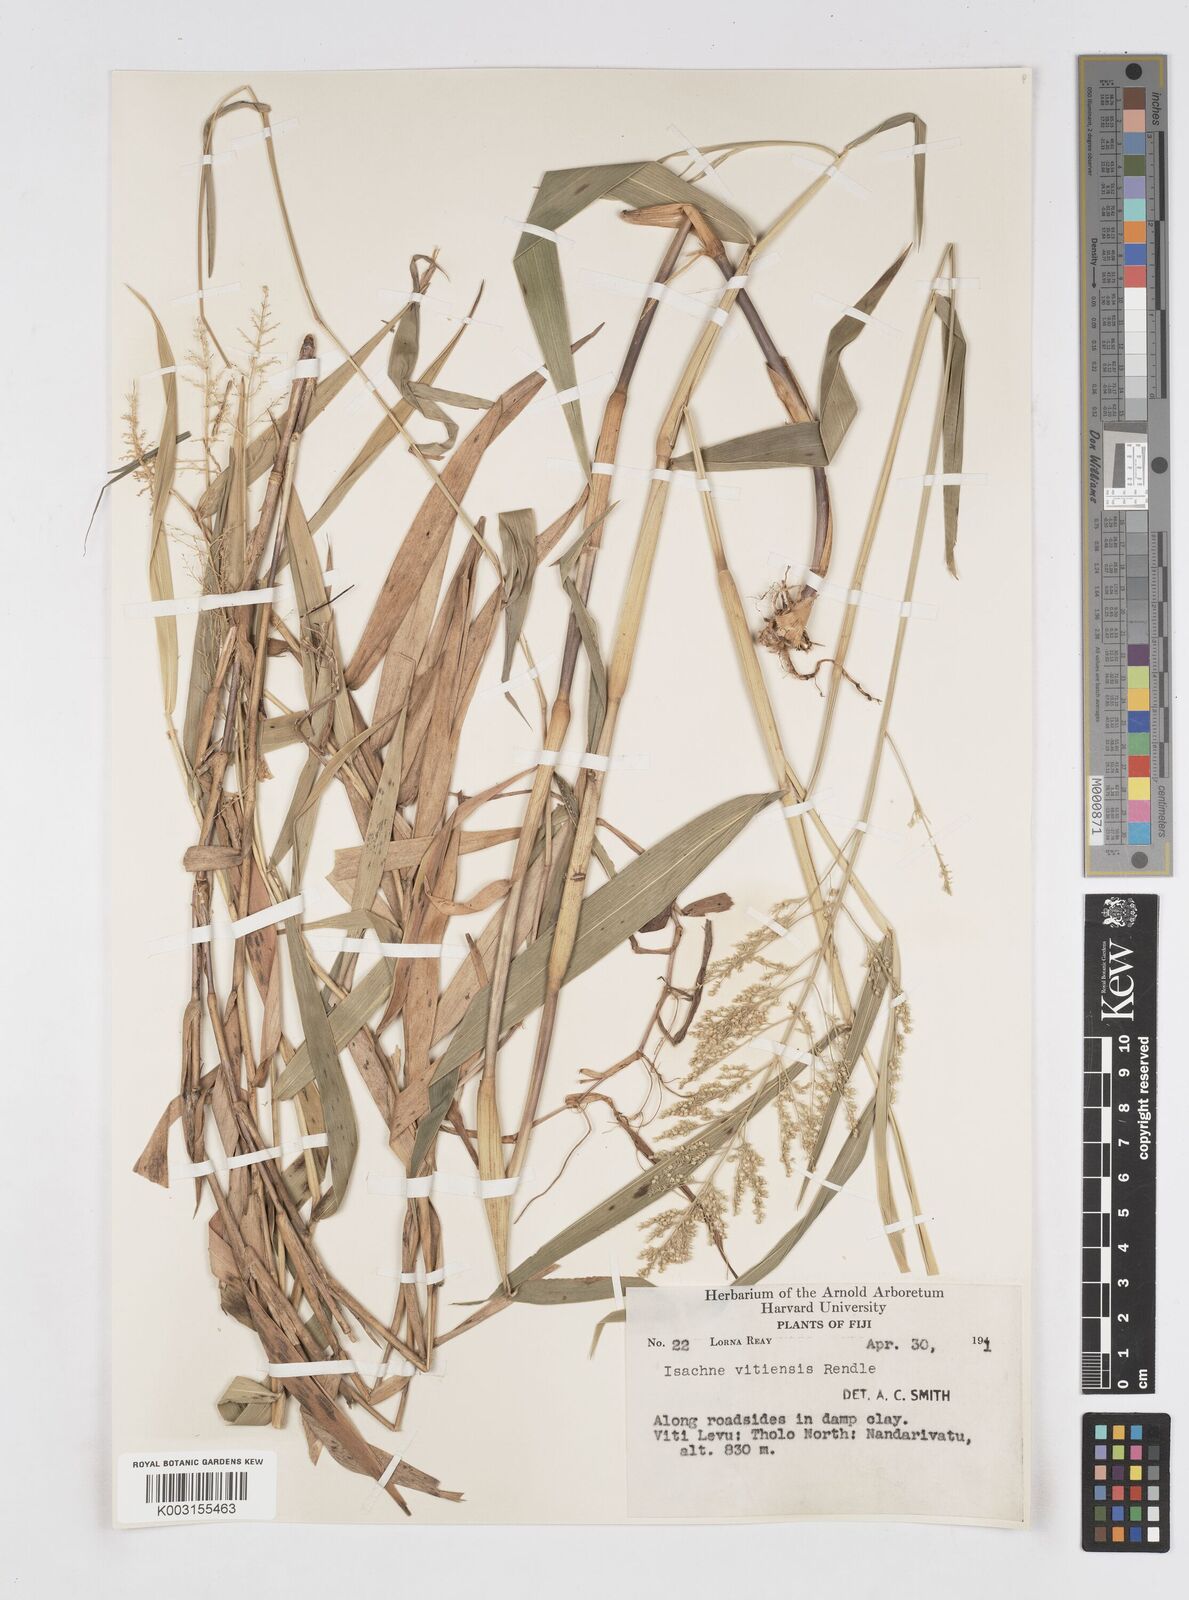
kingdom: Plantae
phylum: Tracheophyta
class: Liliopsida
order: Poales
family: Poaceae
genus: Isachne
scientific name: Isachne vitiensis
